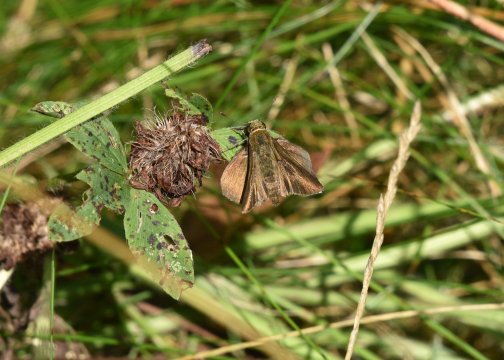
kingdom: Animalia
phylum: Arthropoda
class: Insecta
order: Lepidoptera
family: Hesperiidae
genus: Euphyes
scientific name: Euphyes vestris
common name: Dun Skipper
